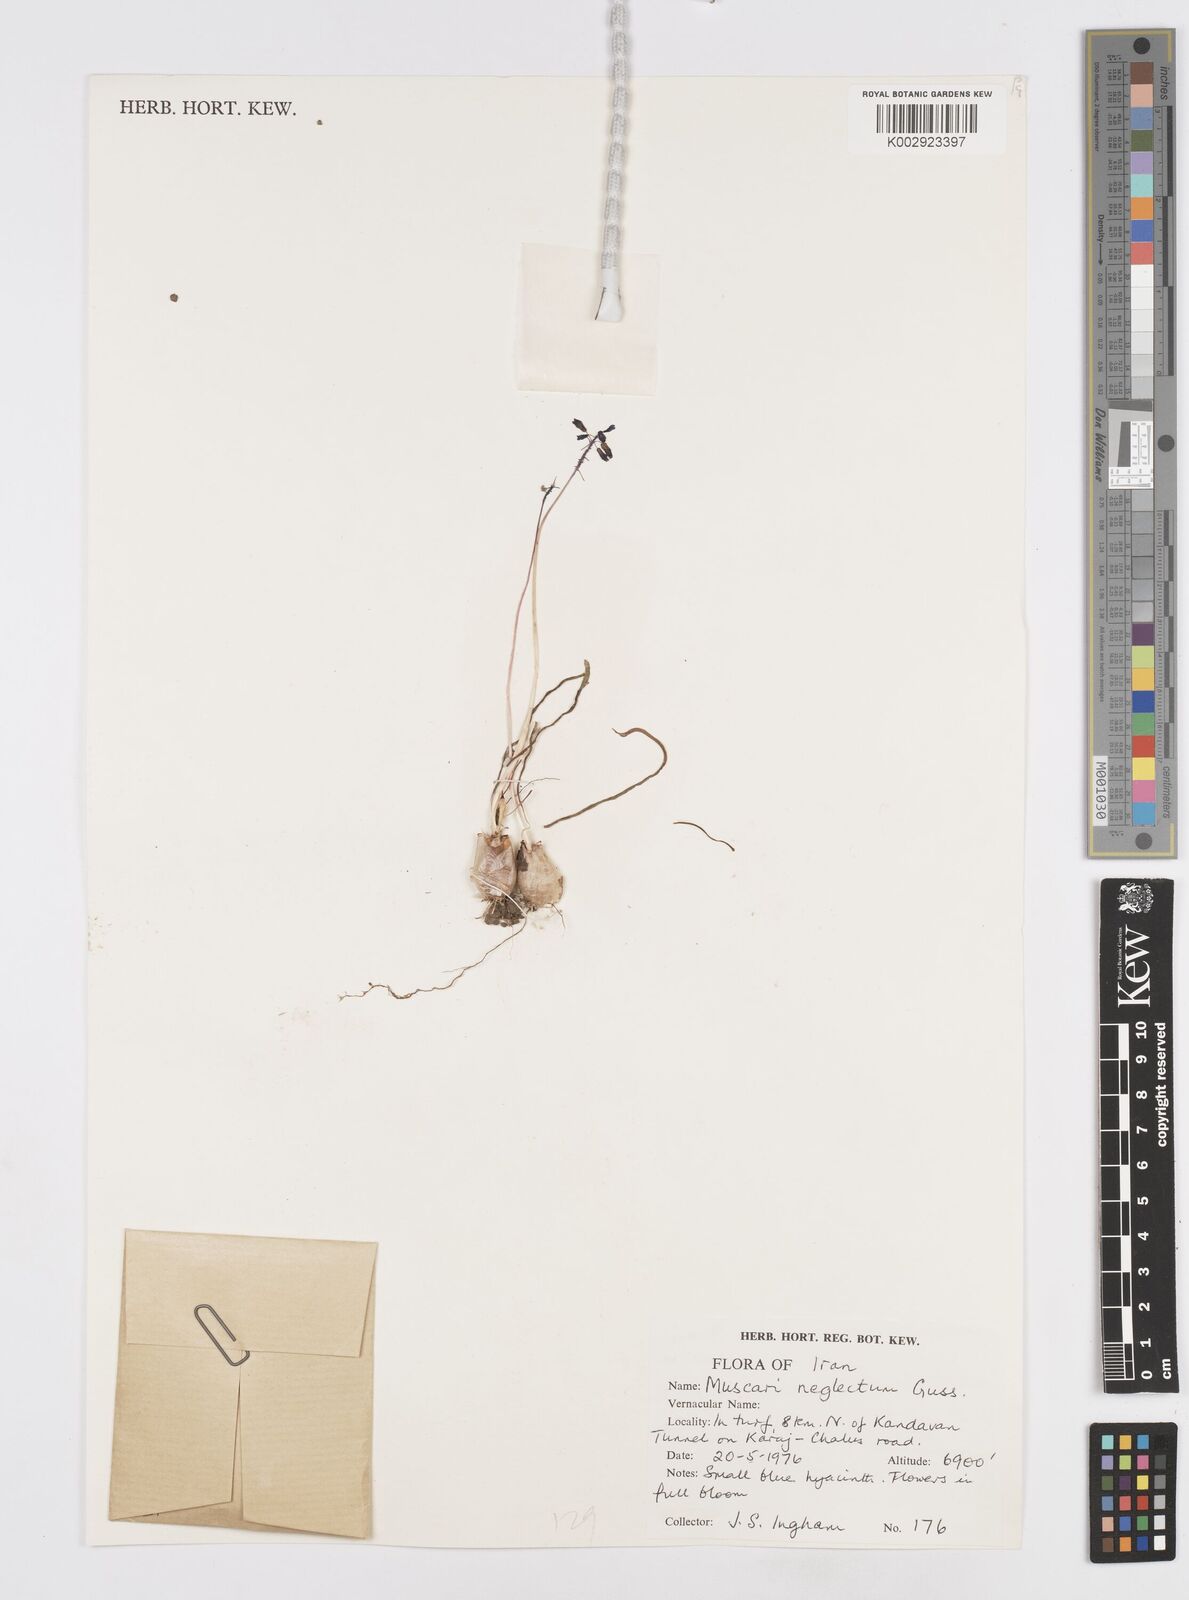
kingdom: Plantae
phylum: Tracheophyta
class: Liliopsida
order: Asparagales
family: Asparagaceae
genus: Muscari
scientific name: Muscari neglectum
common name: Grape-hyacinth
